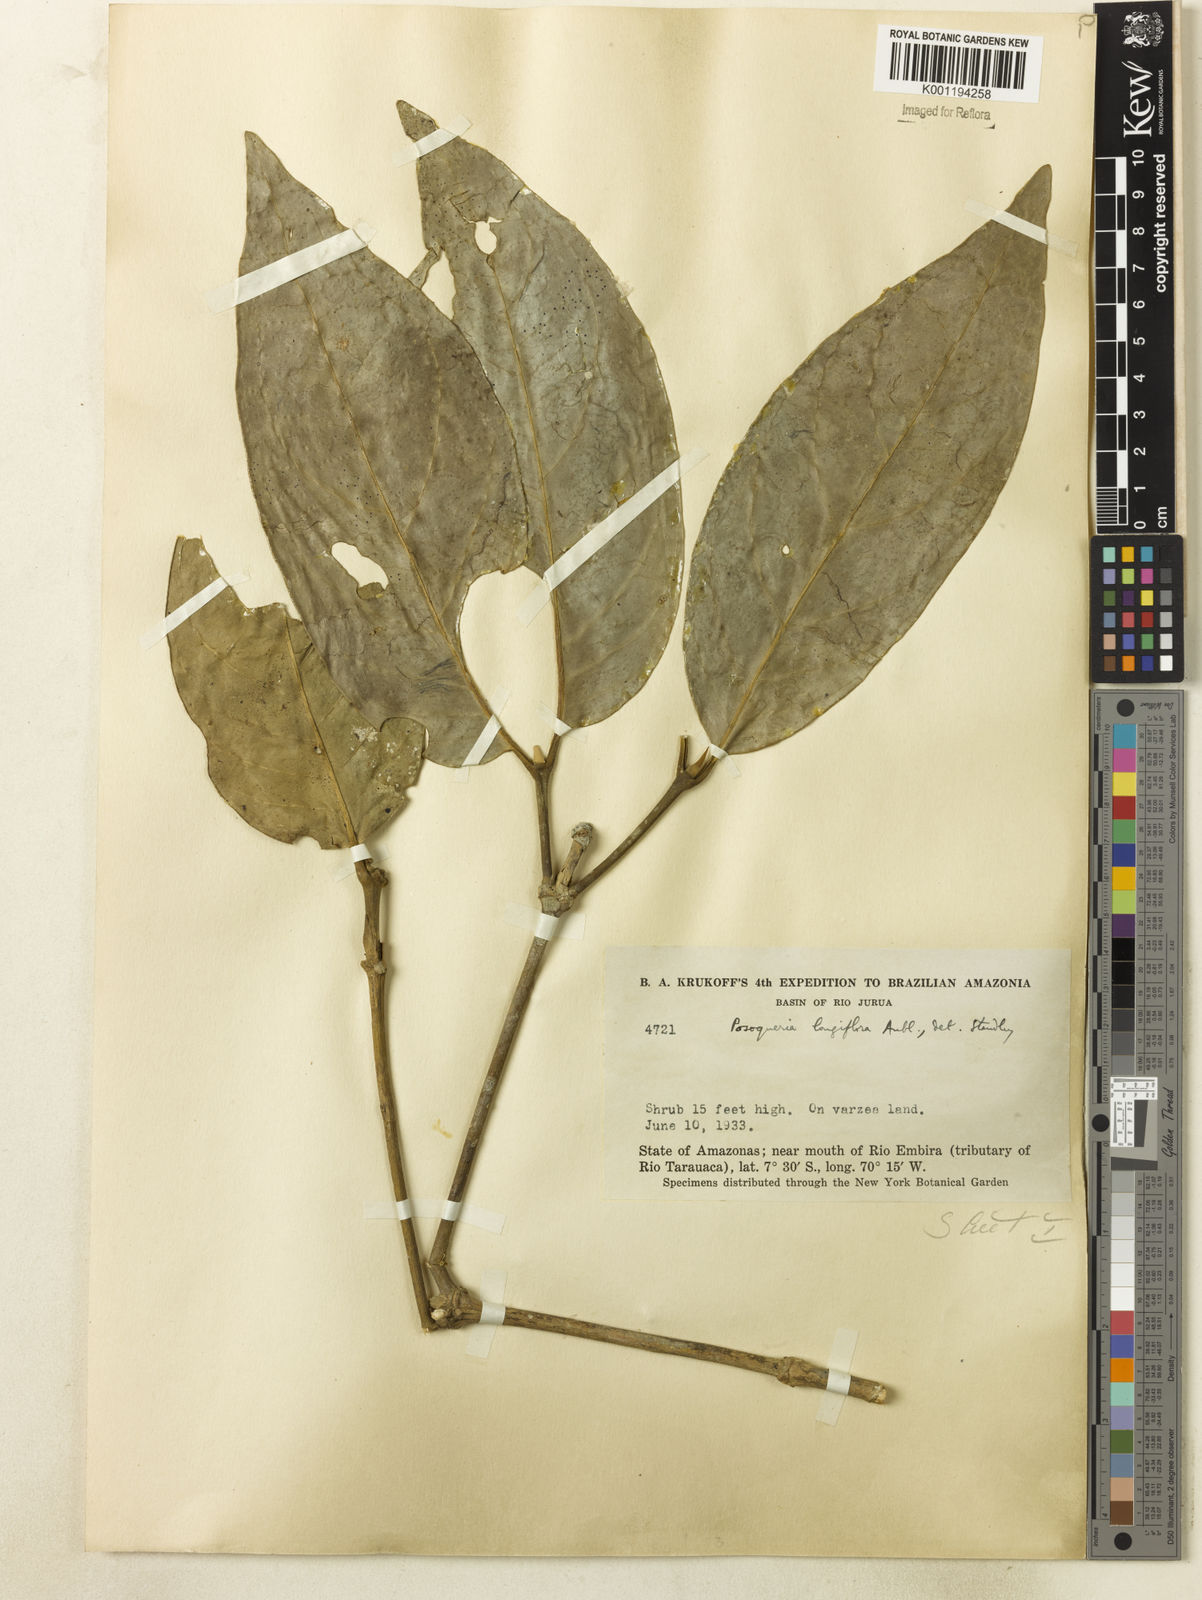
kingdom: Plantae
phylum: Tracheophyta
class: Magnoliopsida
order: Gentianales
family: Rubiaceae
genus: Posoqueria
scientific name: Posoqueria longiflora
